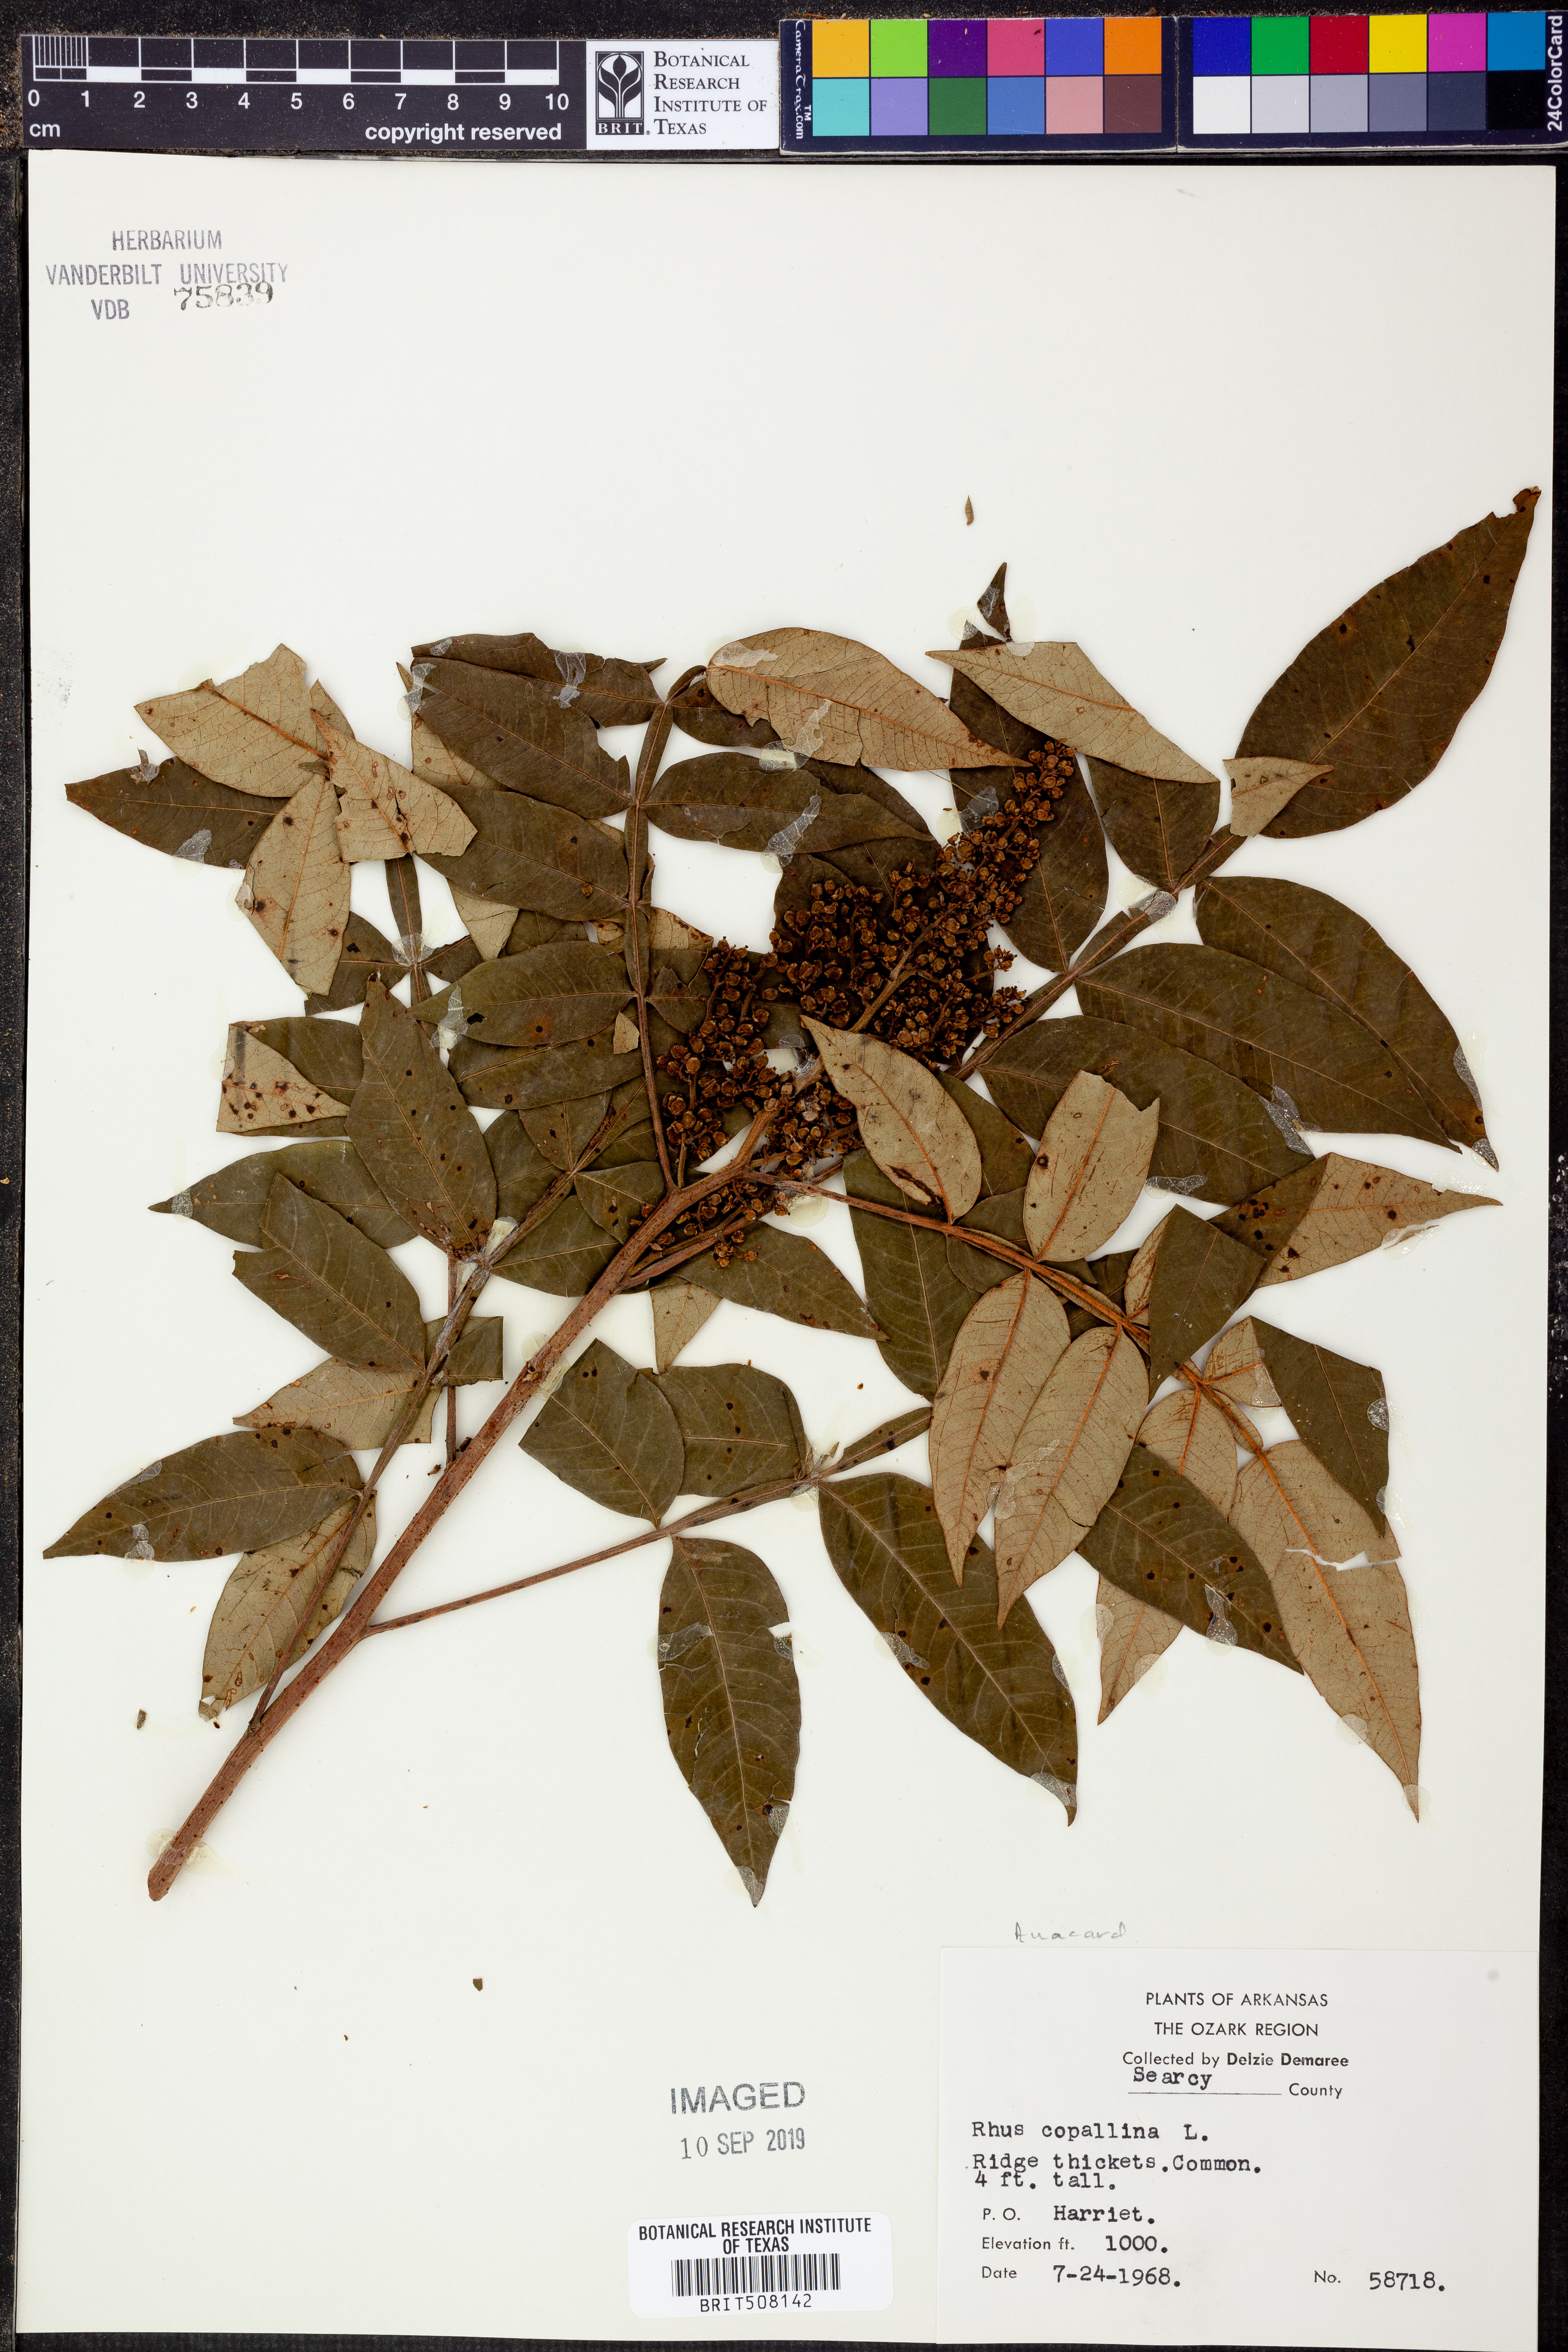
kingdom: Plantae
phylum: Tracheophyta
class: Magnoliopsida
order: Sapindales
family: Anacardiaceae
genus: Rhus
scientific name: Rhus copallina
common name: Shining sumac
